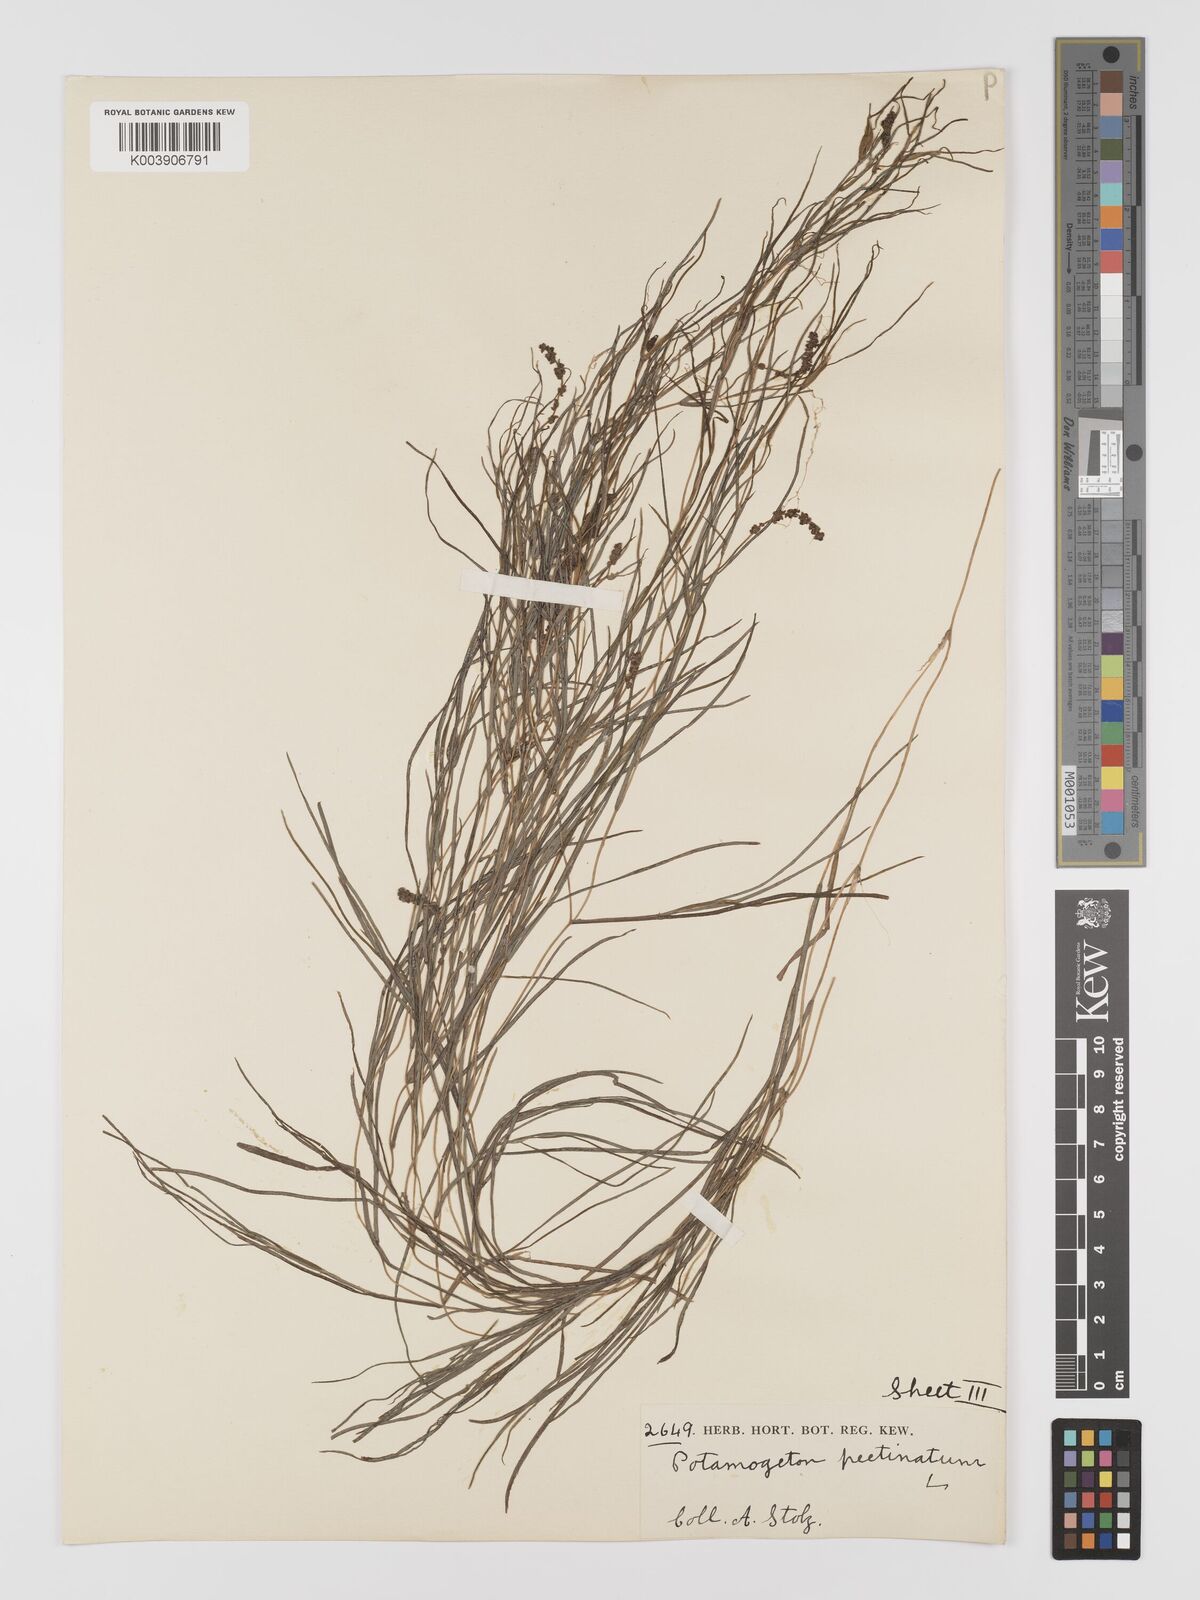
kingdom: Plantae
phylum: Tracheophyta
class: Liliopsida
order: Alismatales
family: Potamogetonaceae
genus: Stuckenia
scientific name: Stuckenia pectinata
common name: Sago pondweed
